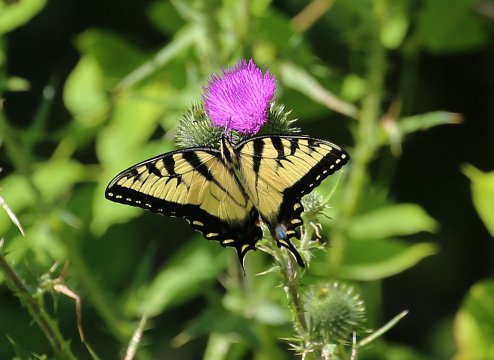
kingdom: Animalia
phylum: Arthropoda
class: Insecta
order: Lepidoptera
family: Papilionidae
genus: Pterourus
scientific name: Pterourus glaucus
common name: Eastern Tiger Swallowtail
